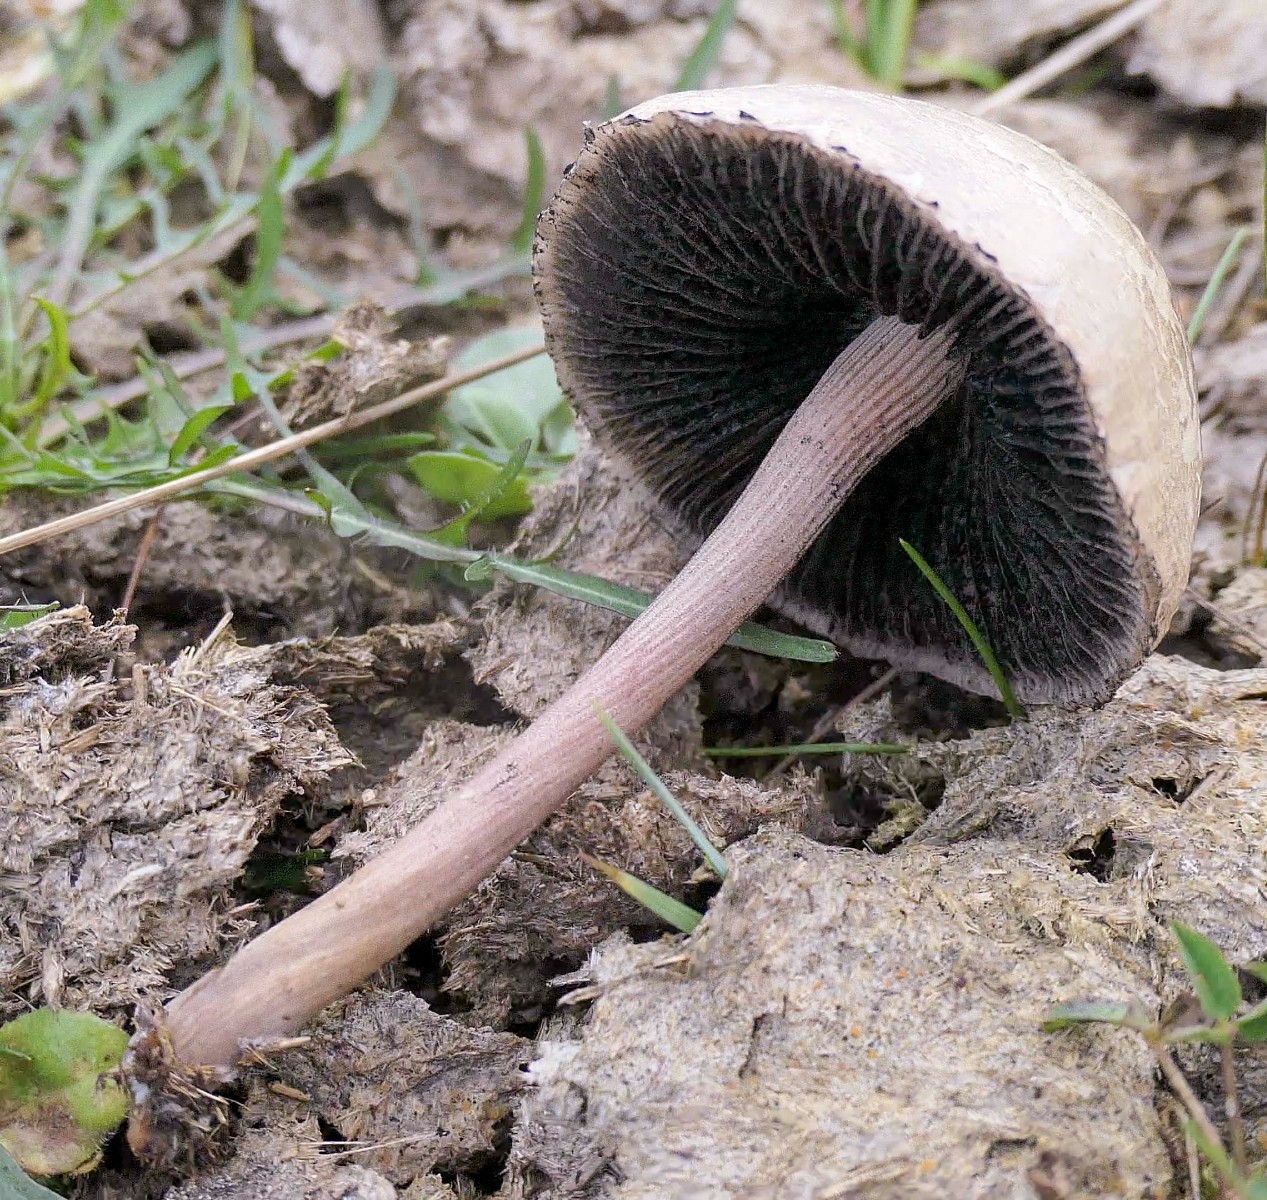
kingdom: Fungi
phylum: Basidiomycota
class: Agaricomycetes
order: Agaricales
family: Bolbitiaceae
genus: Panaeolus
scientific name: Panaeolus papilionaceus
